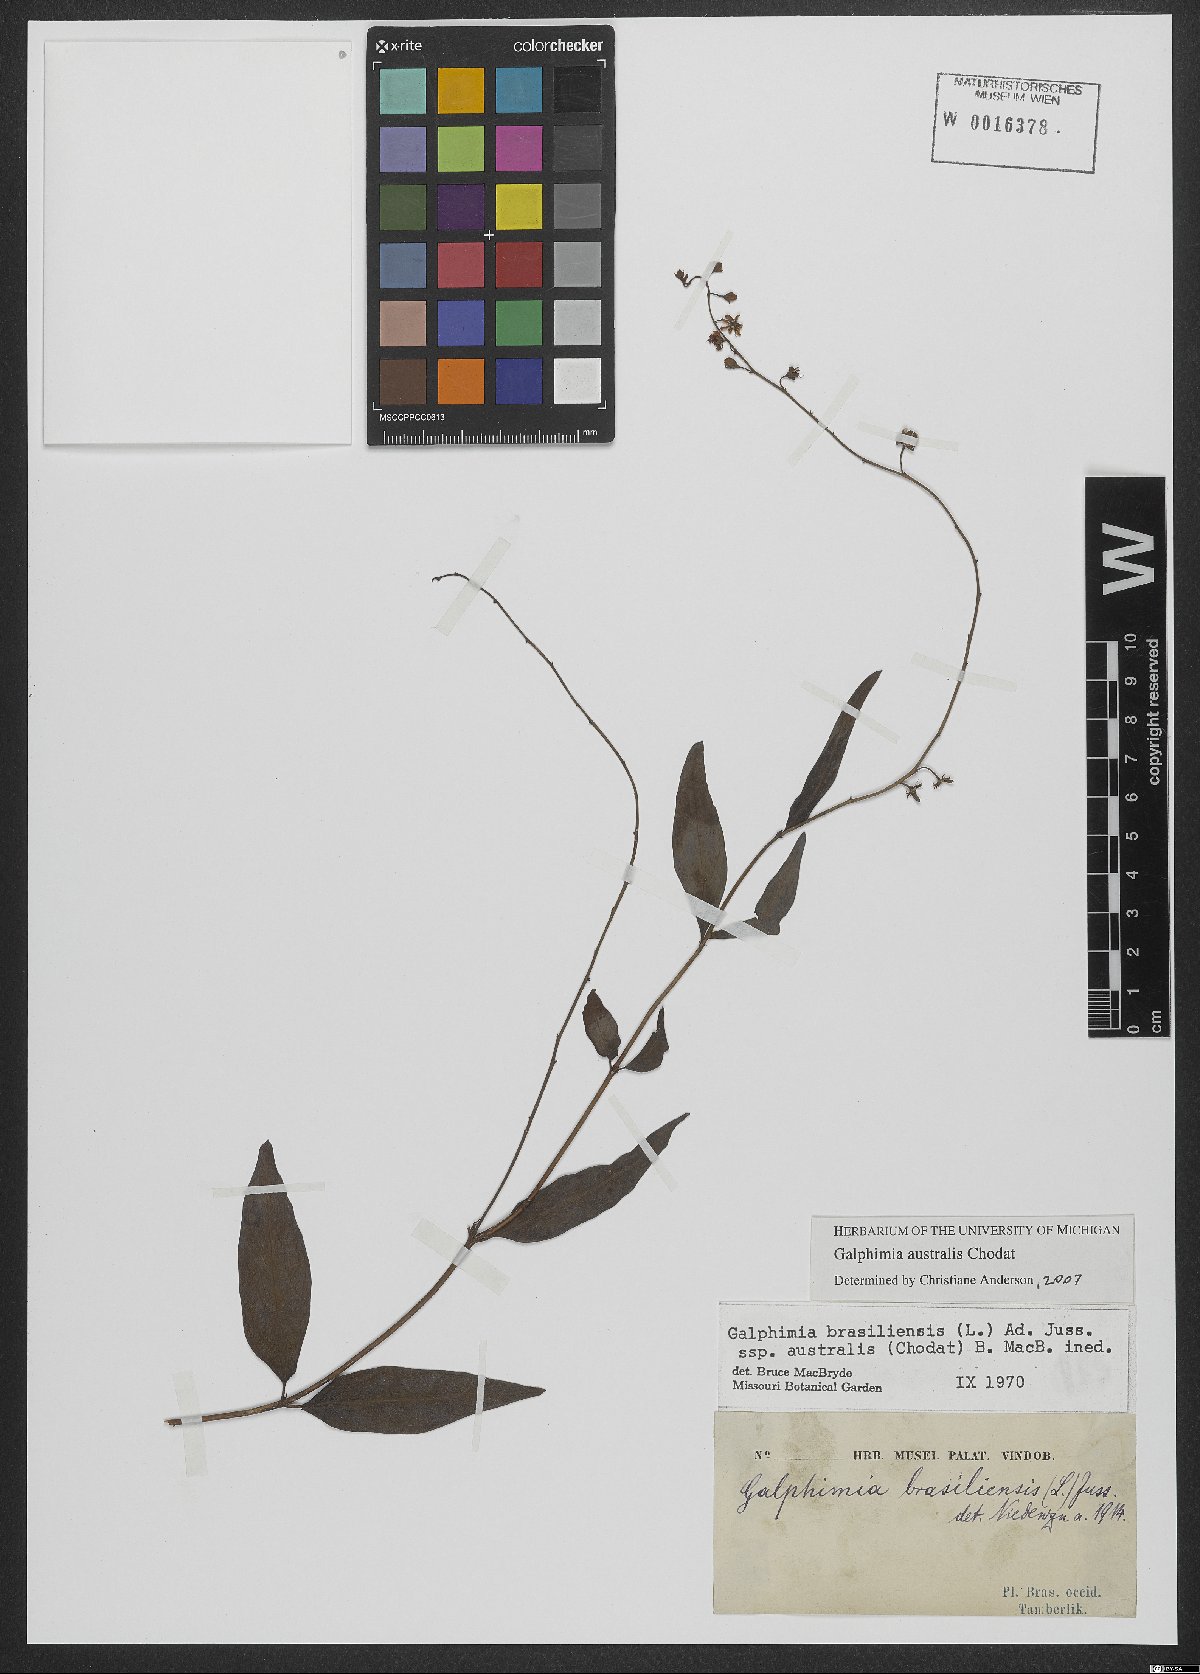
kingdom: Plantae
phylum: Tracheophyta
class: Magnoliopsida
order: Malpighiales
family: Malpighiaceae
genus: Galphimia
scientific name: Galphimia australis
